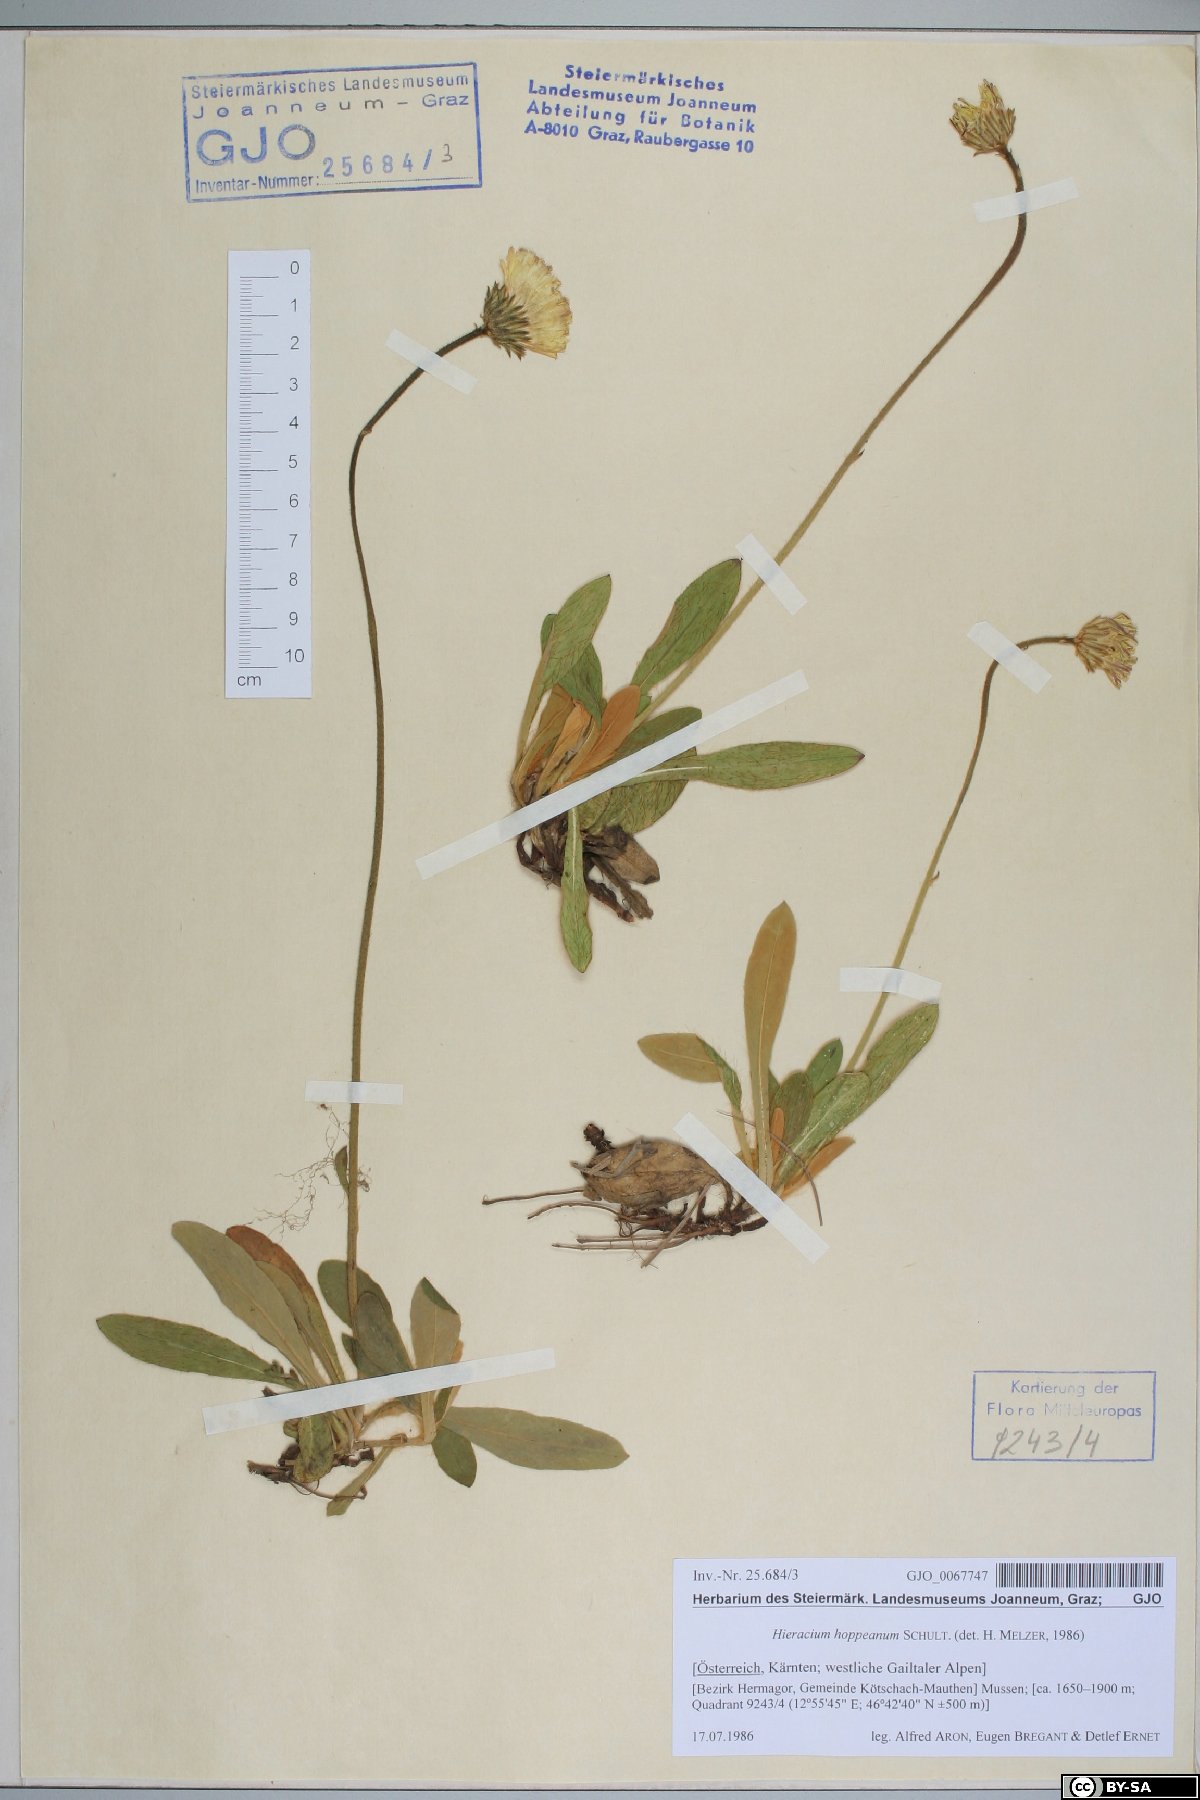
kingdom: Plantae
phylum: Tracheophyta
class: Magnoliopsida
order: Asterales
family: Asteraceae
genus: Pilosella
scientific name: Pilosella hoppeana
